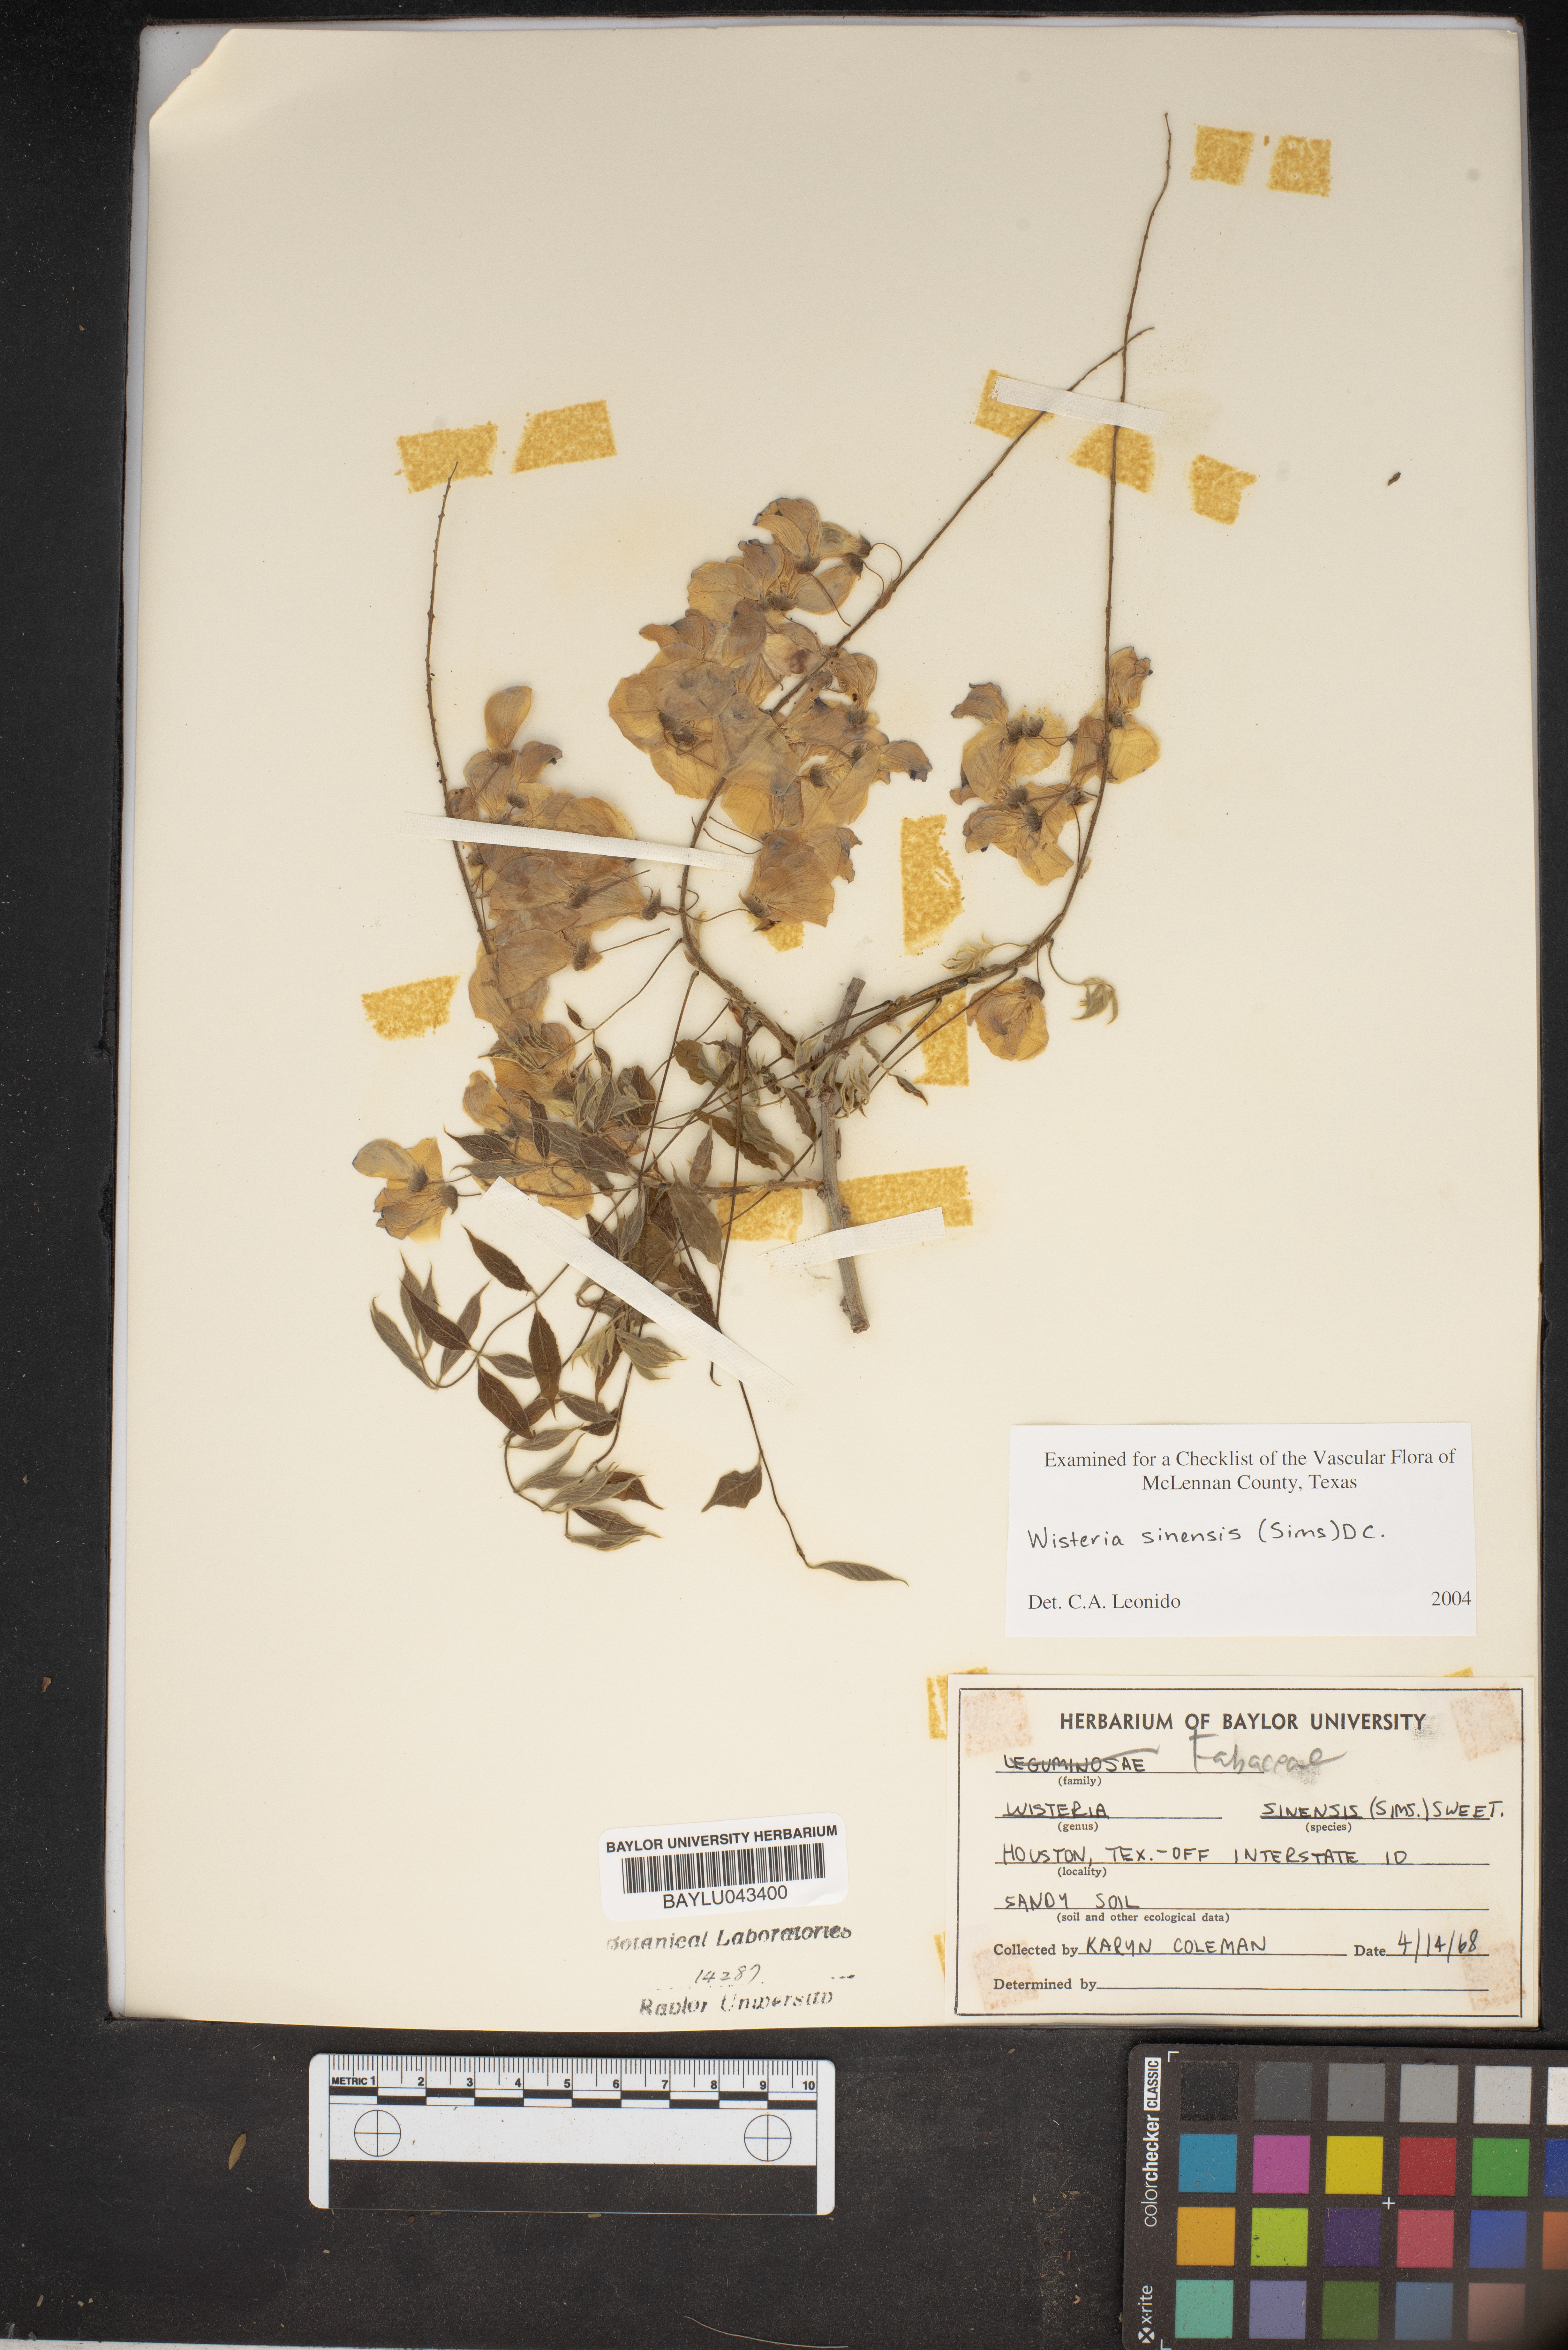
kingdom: Plantae
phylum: Tracheophyta
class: Magnoliopsida
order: Fabales
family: Fabaceae
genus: Wisteria
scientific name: Wisteria sinensis
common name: Chinese wisteria
